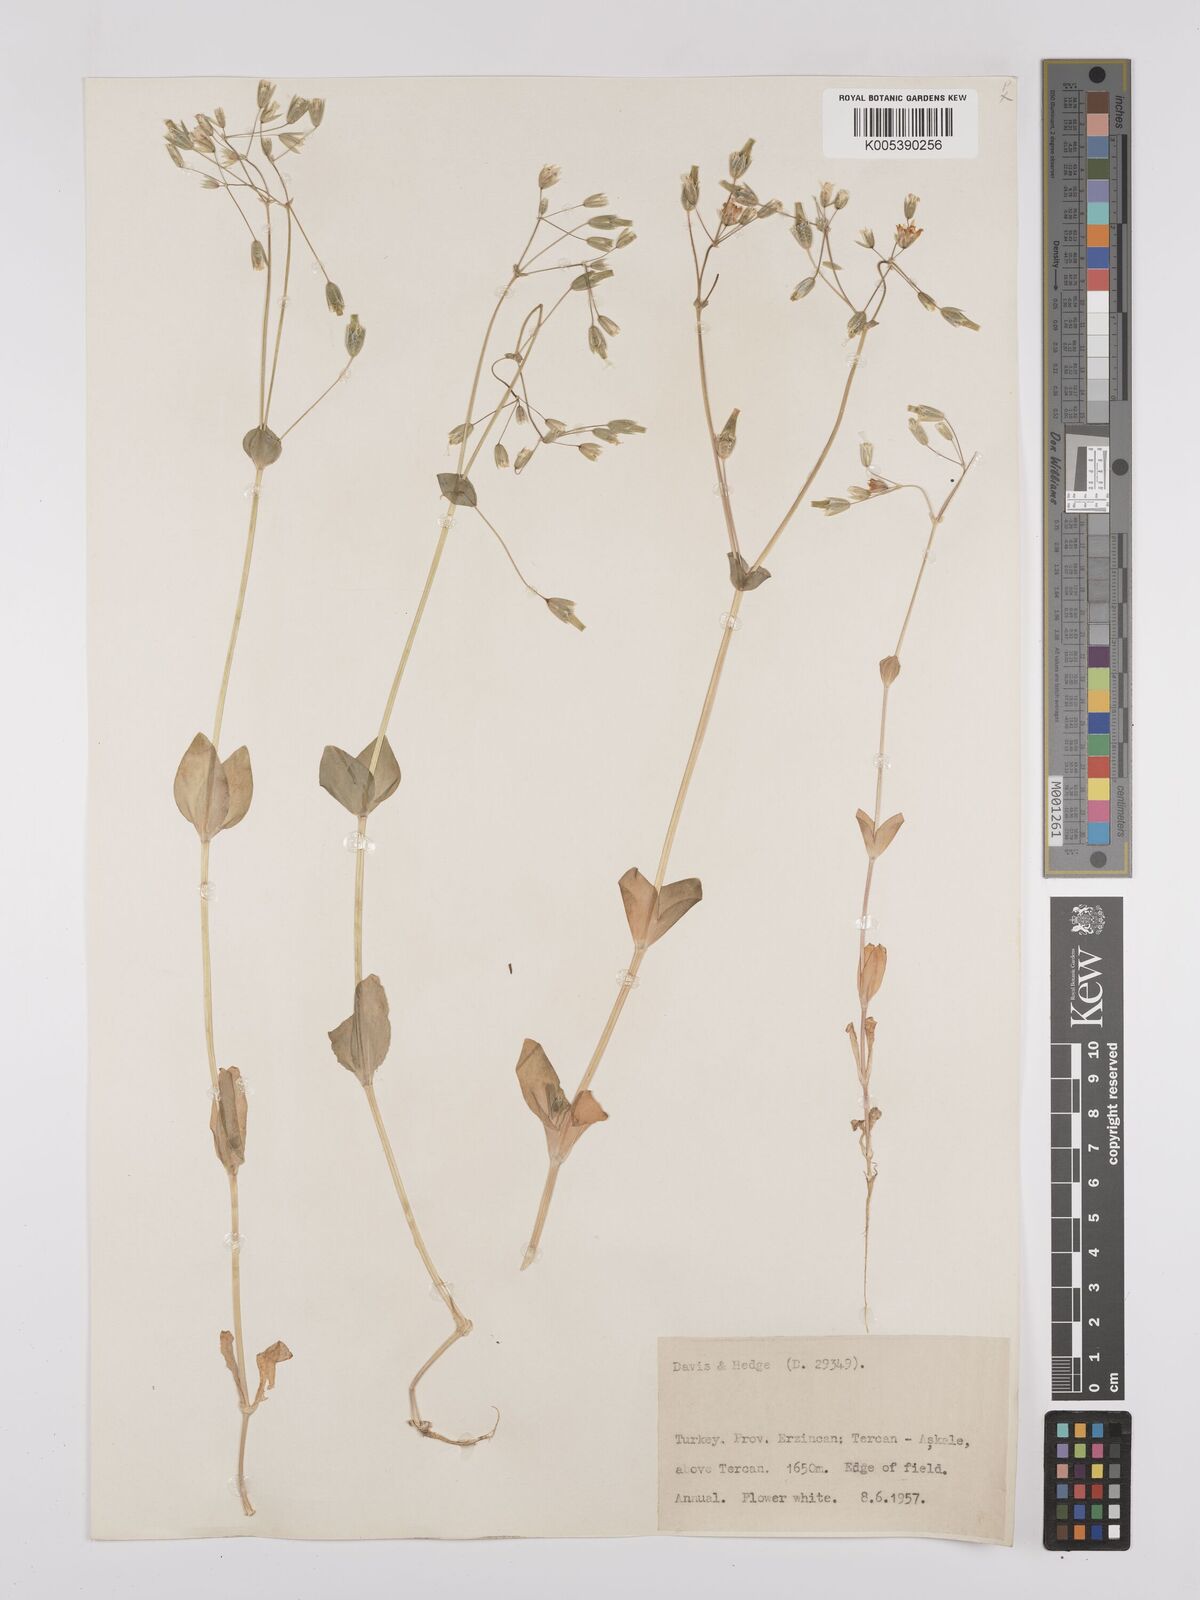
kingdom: Plantae
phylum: Tracheophyta
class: Magnoliopsida
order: Caryophyllales
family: Caryophyllaceae
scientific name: Caryophyllaceae
